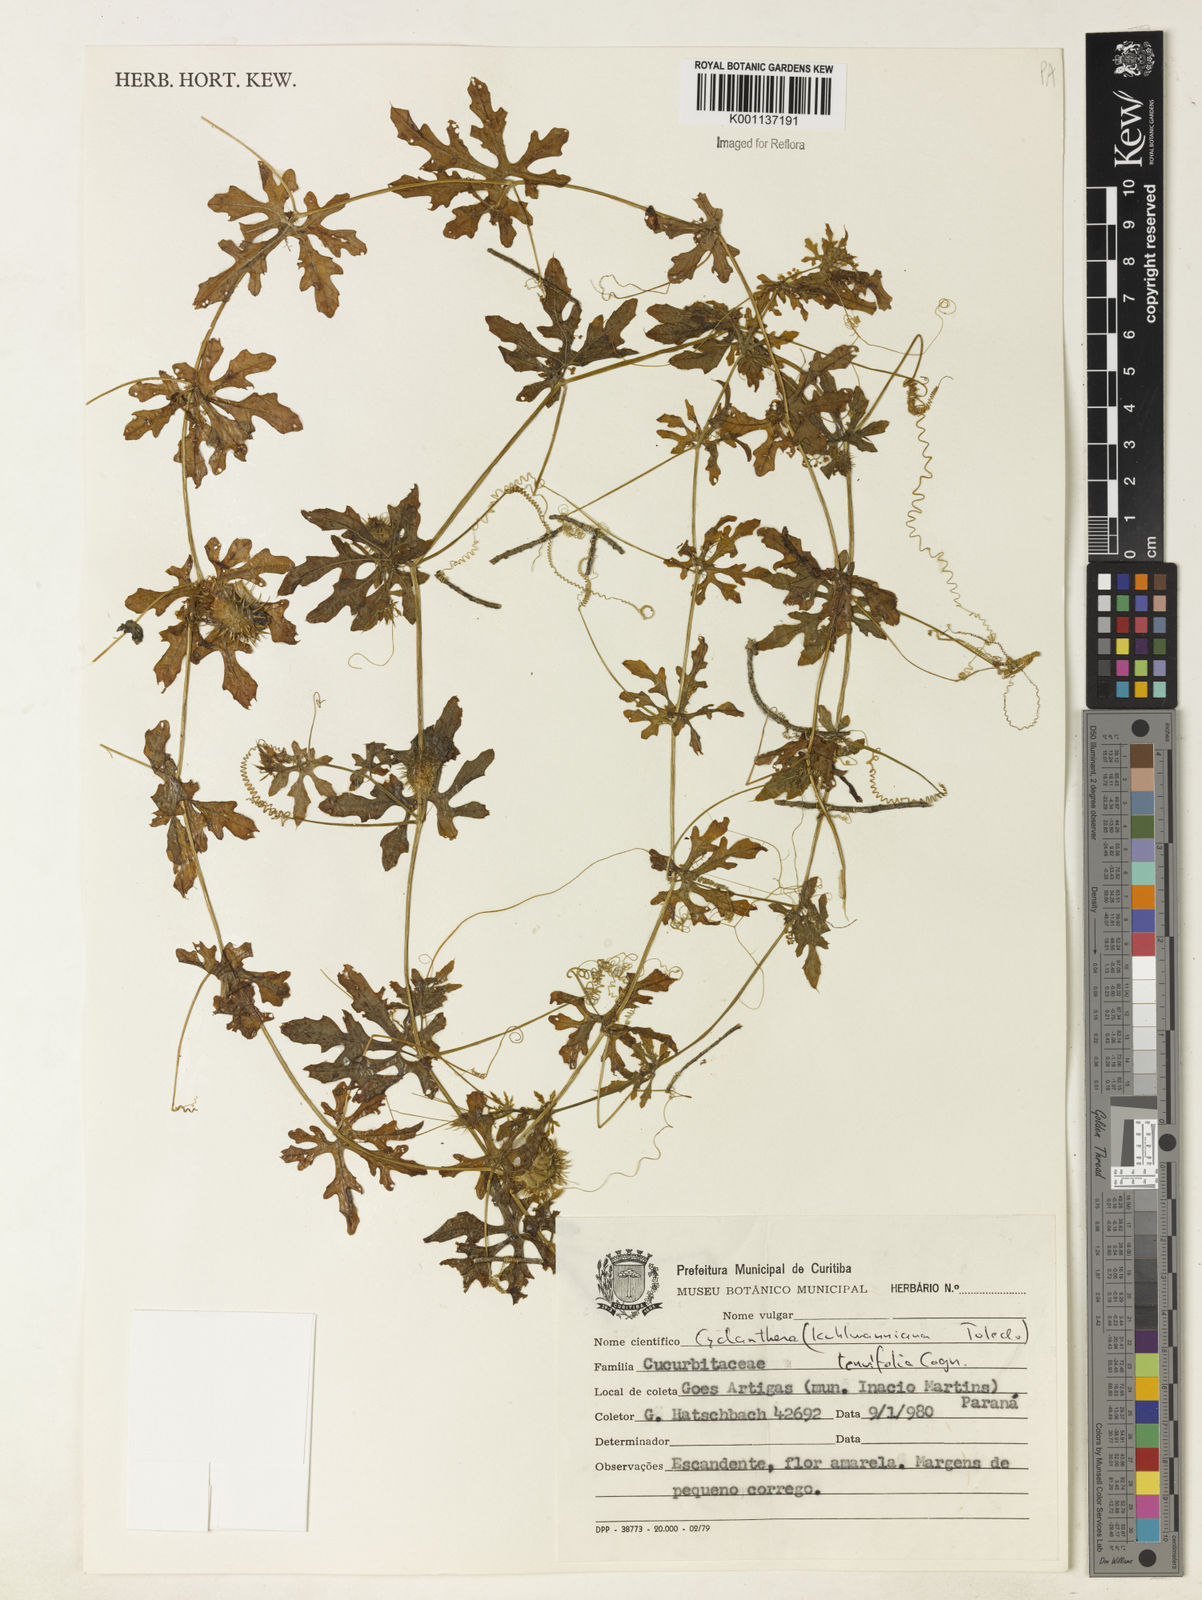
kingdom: Plantae
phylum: Tracheophyta
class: Magnoliopsida
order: Cucurbitales
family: Cucurbitaceae
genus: Cyclanthera
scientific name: Cyclanthera tenuifolia
